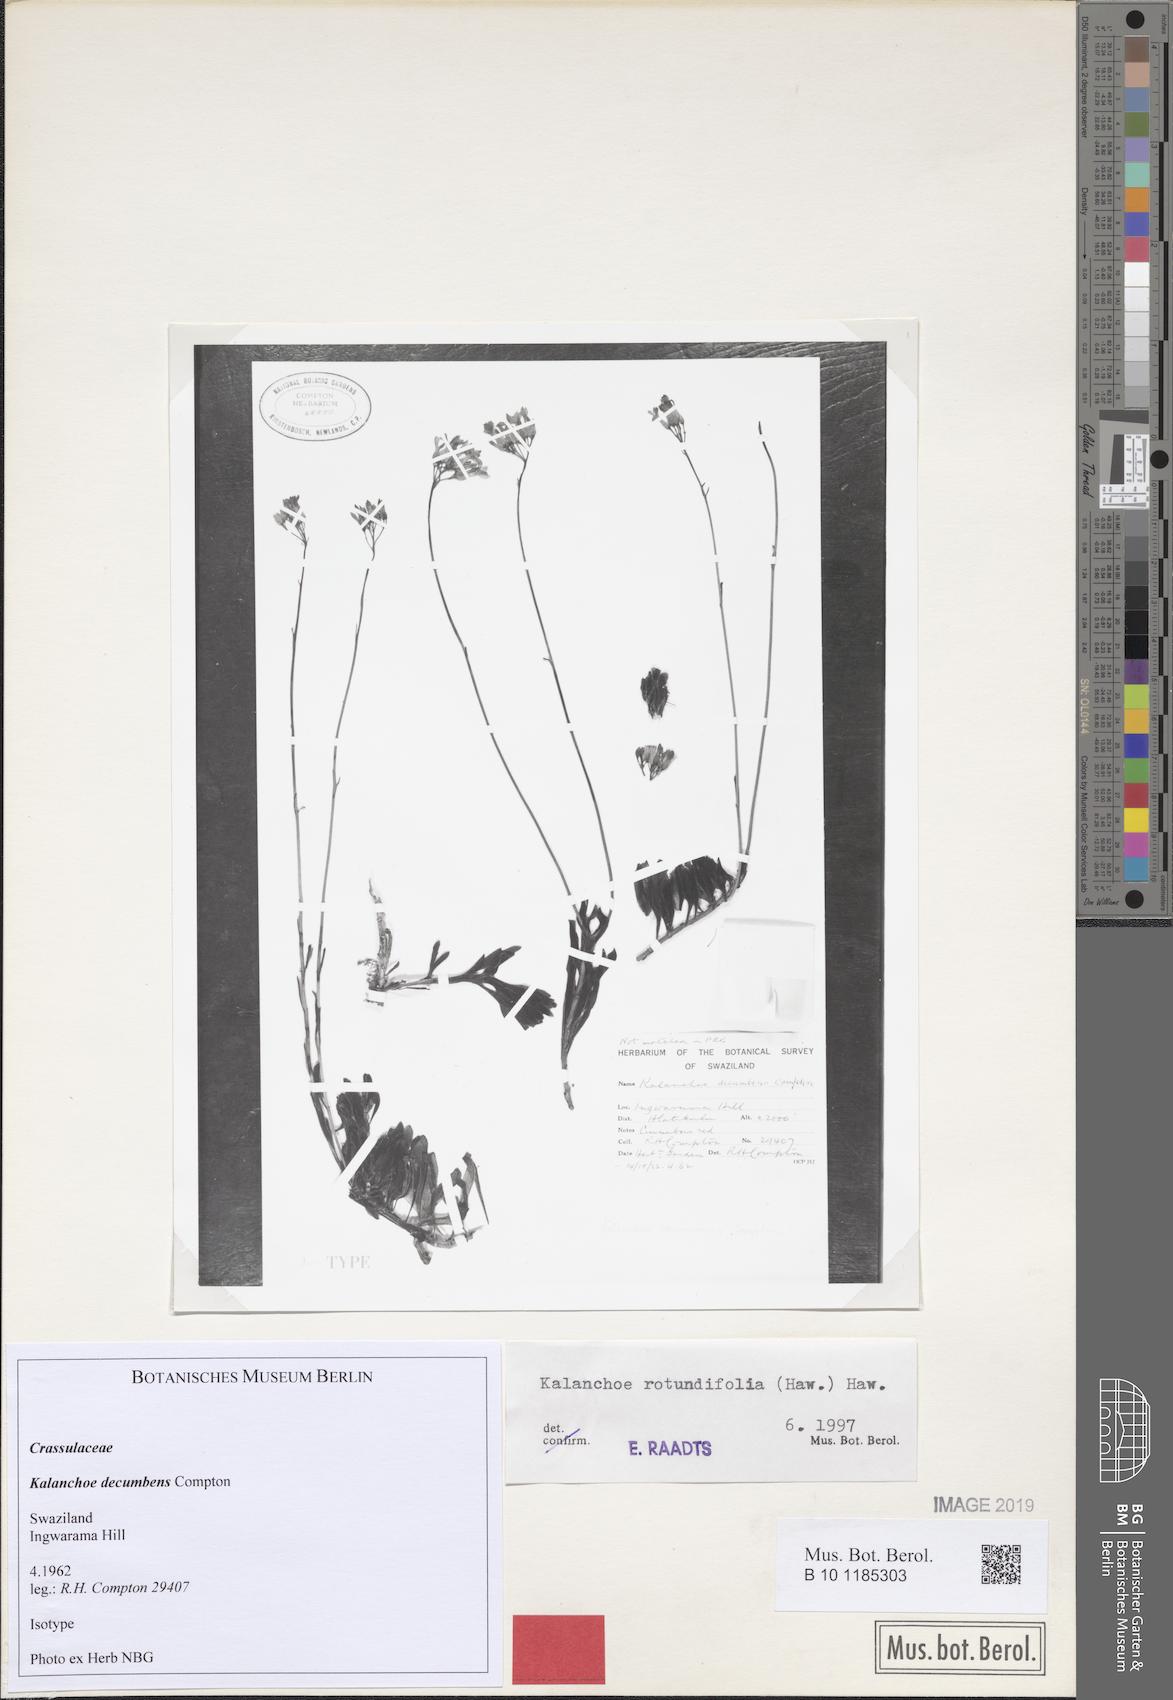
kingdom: Plantae
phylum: Tracheophyta
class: Magnoliopsida
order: Saxifragales
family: Crassulaceae
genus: Kalanchoe
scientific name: Kalanchoe rotundifolia
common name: Common kalanchoe
